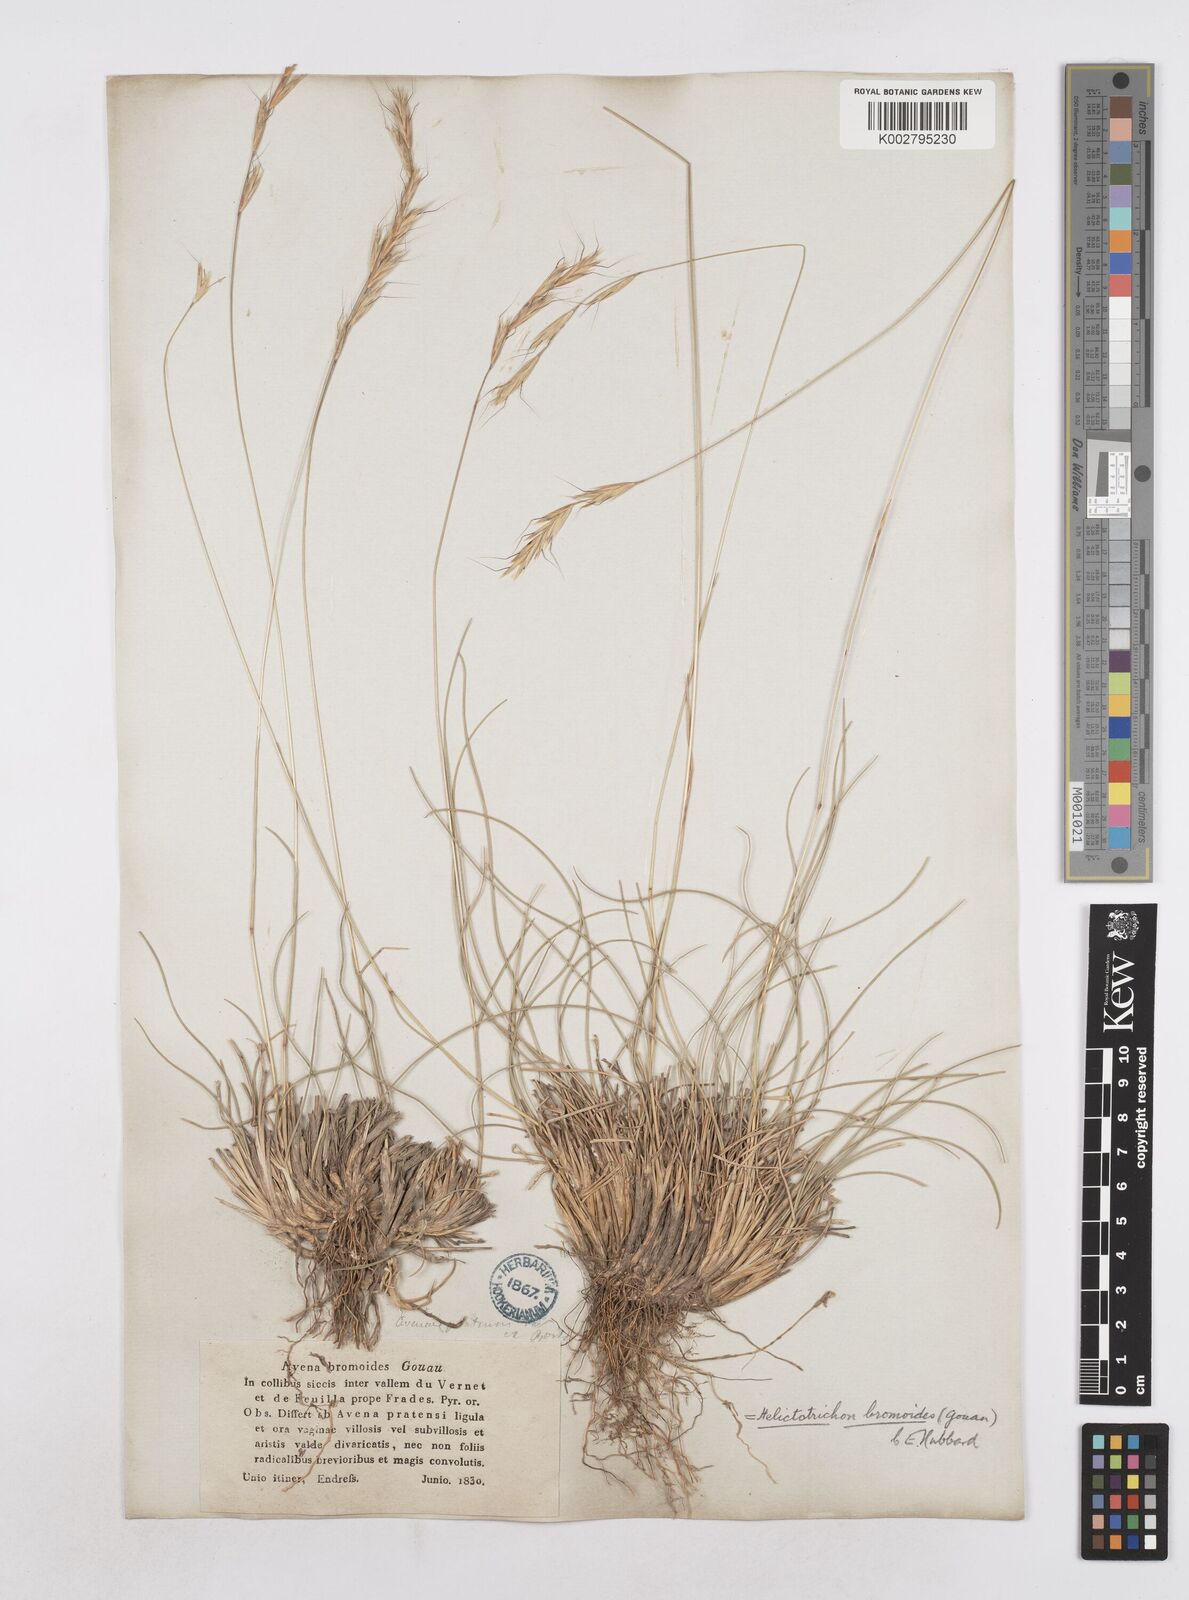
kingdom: Plantae
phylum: Tracheophyta
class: Liliopsida
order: Poales
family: Poaceae
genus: Helictochloa
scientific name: Helictochloa bromoides
